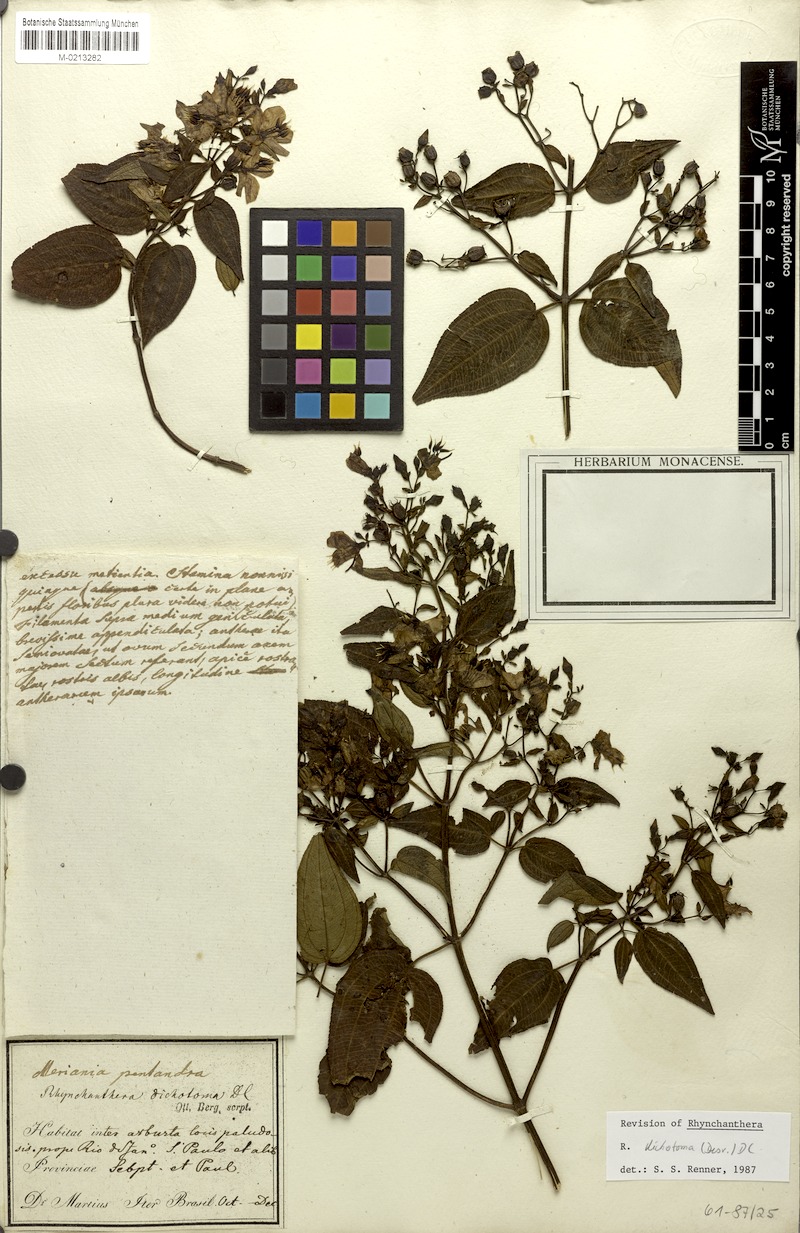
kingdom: Plantae
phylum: Tracheophyta
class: Magnoliopsida
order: Myrtales
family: Melastomataceae
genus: Rhynchanthera
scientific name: Rhynchanthera dichotoma
